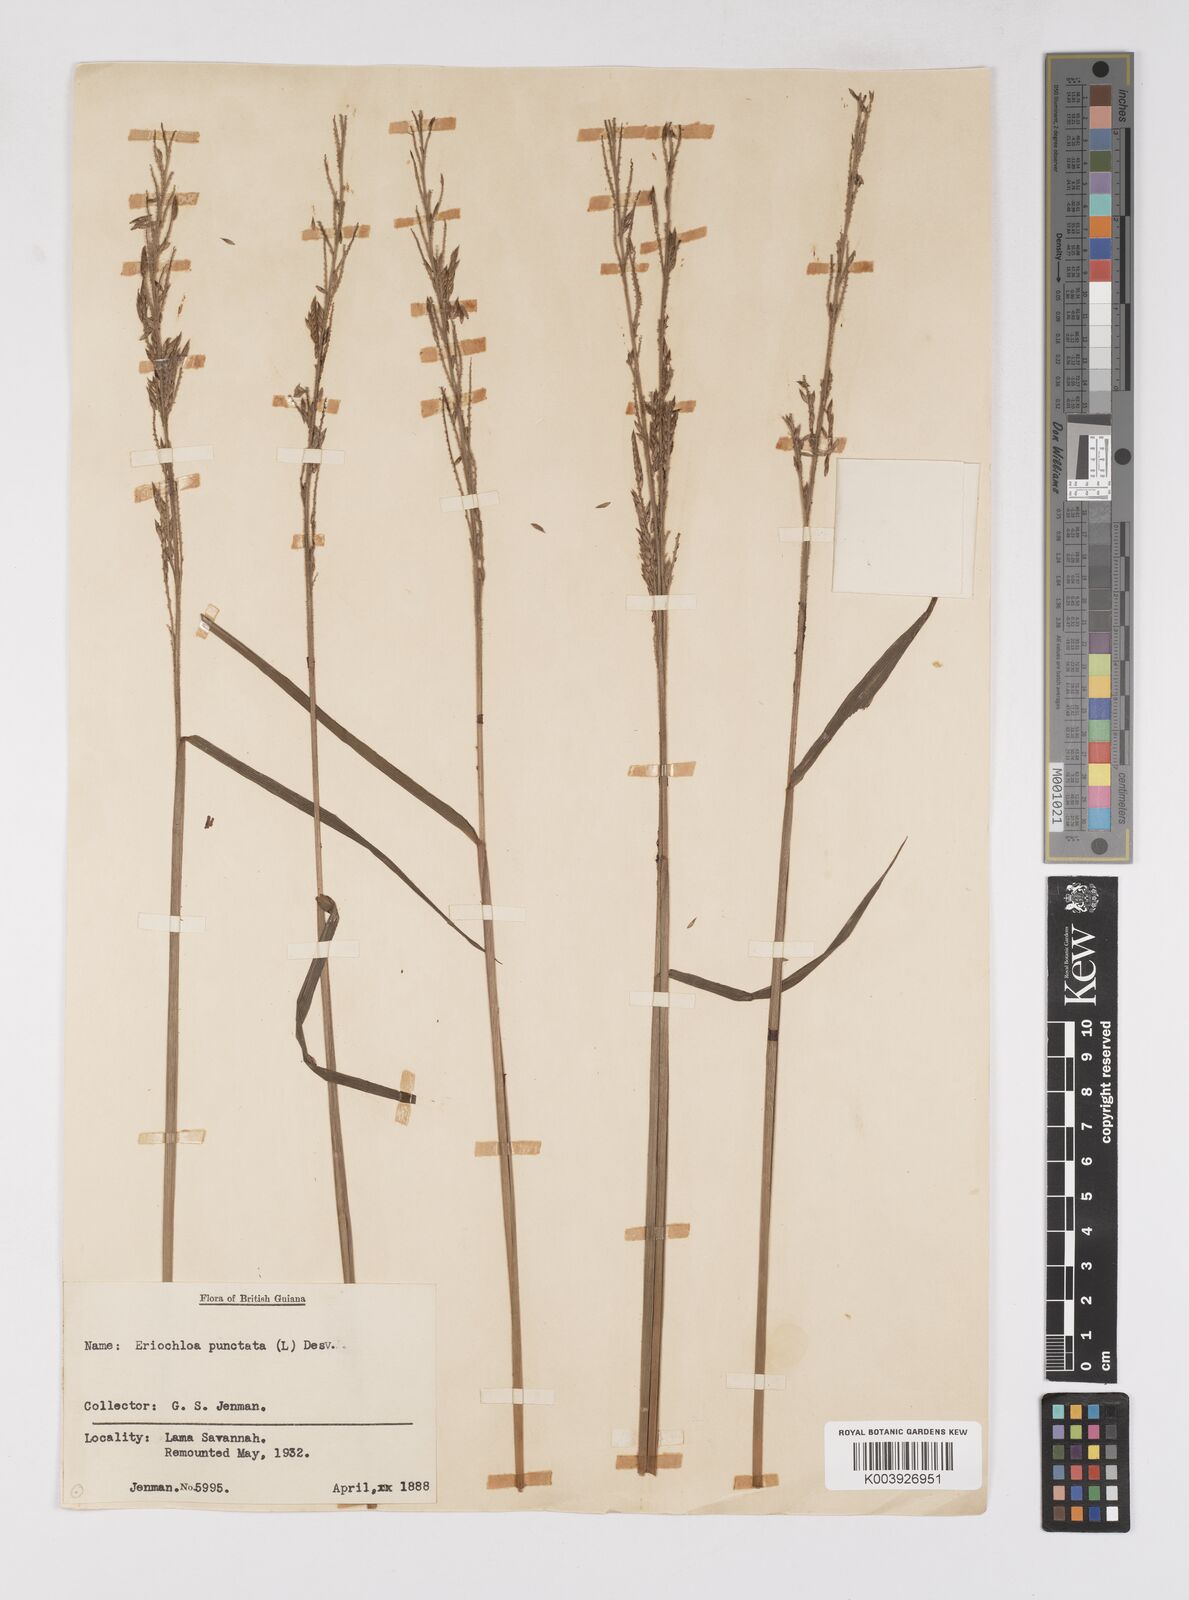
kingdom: Plantae
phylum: Tracheophyta
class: Liliopsida
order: Poales
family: Poaceae
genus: Eriochloa
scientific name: Eriochloa punctata
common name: Louisiana cupgrass
